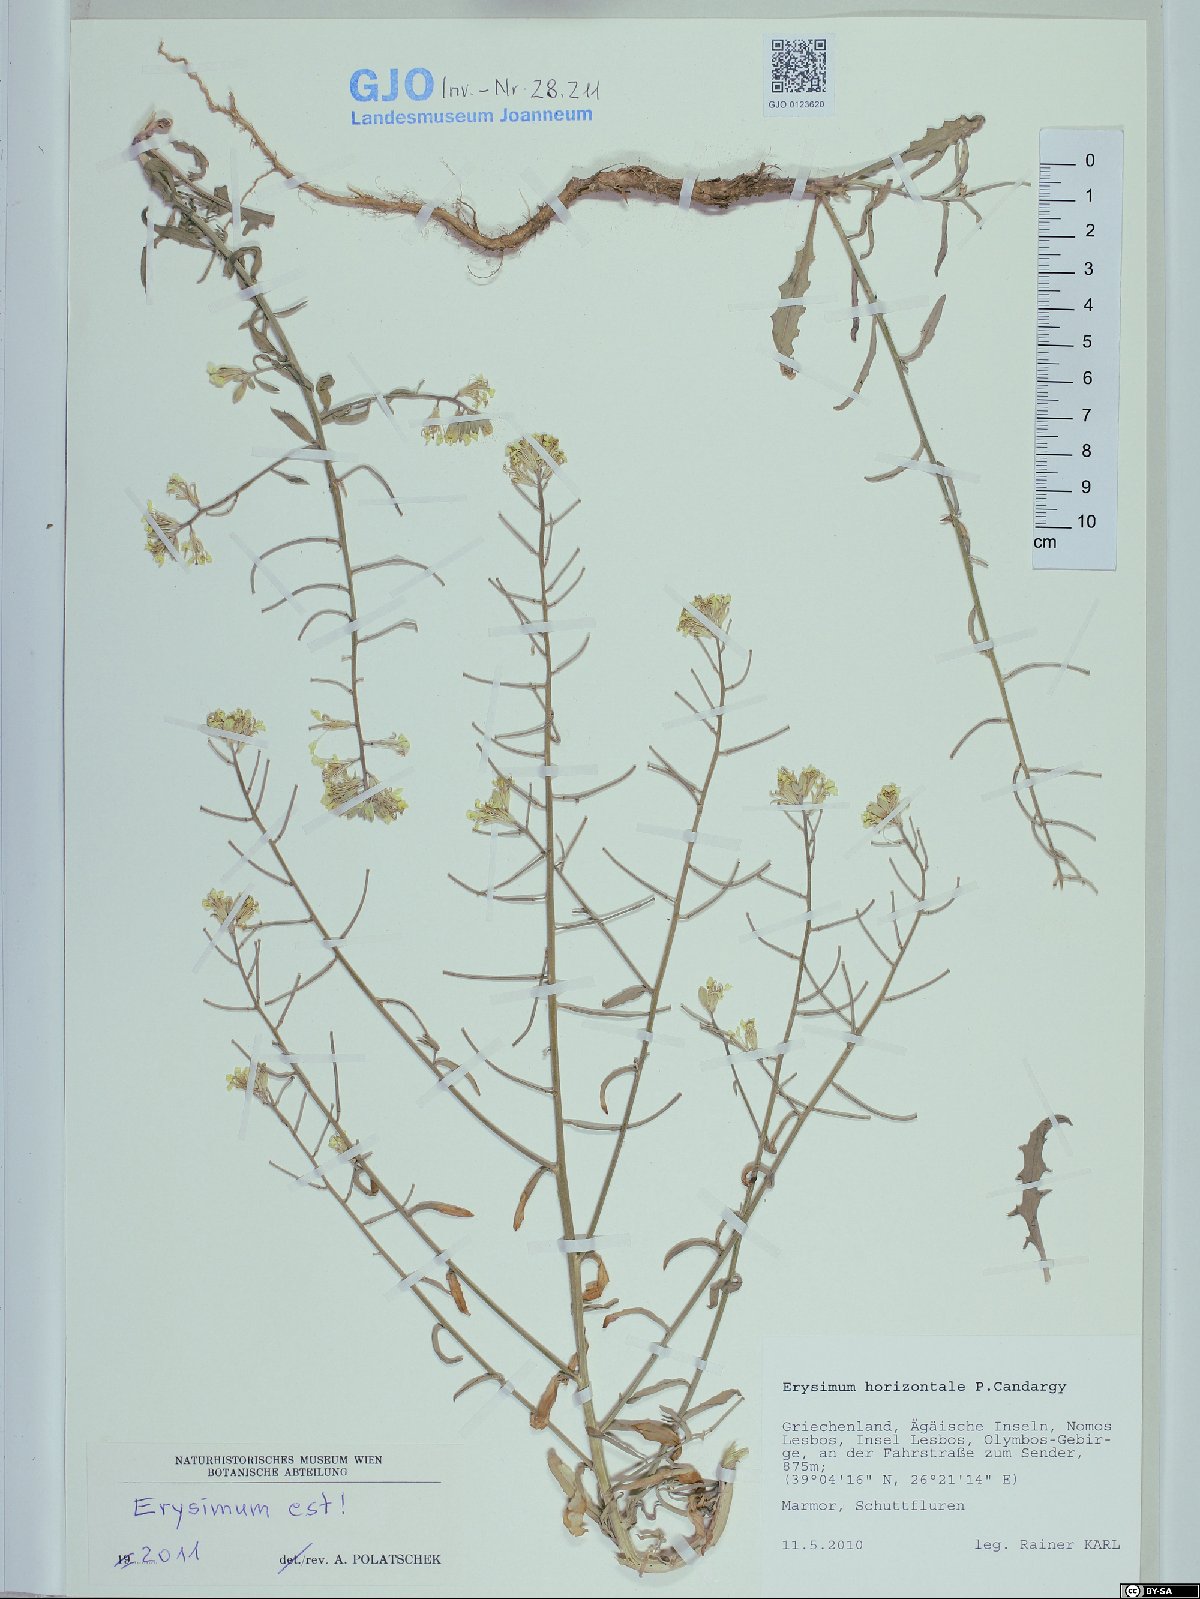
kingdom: Plantae
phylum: Tracheophyta
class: Magnoliopsida
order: Brassicales
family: Brassicaceae
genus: Erysimum
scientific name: Erysimum horizontale
